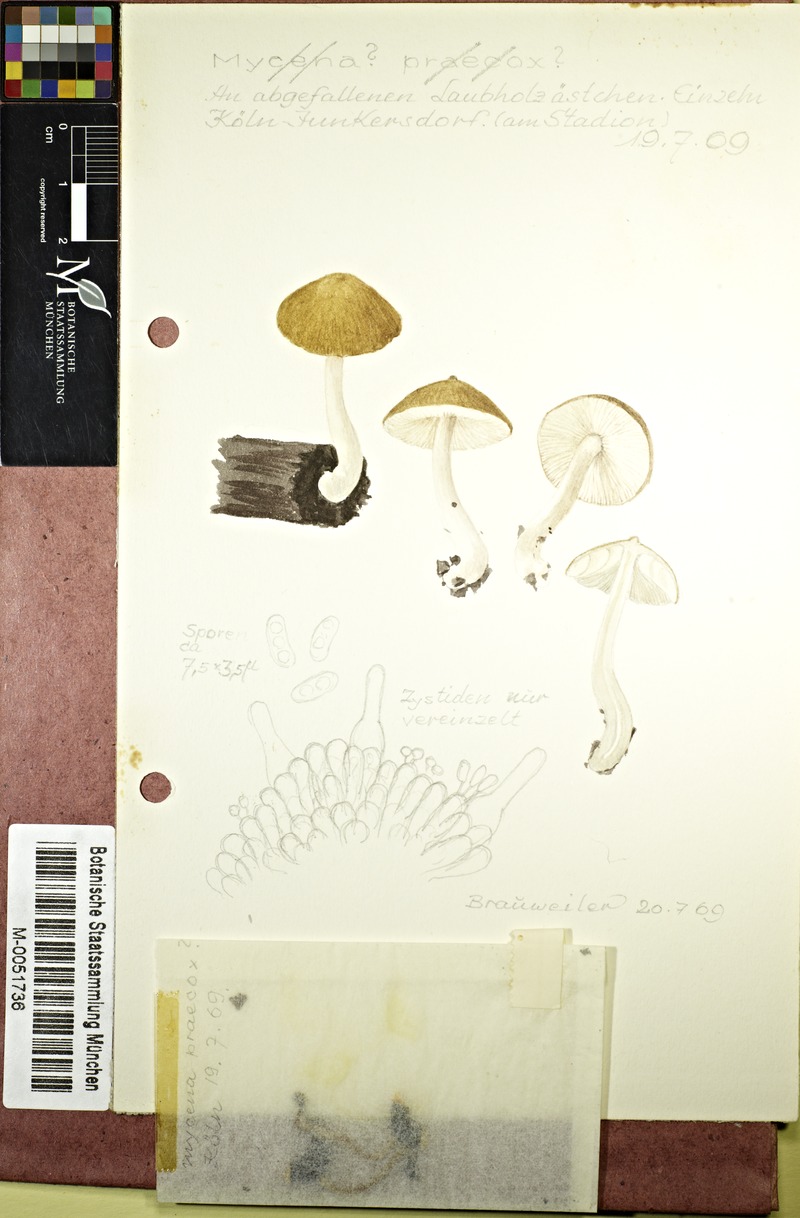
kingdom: Fungi
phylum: Basidiomycota
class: Agaricomycetes
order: Agaricales
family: Mycenaceae
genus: Mycena
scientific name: Mycena abramsii
